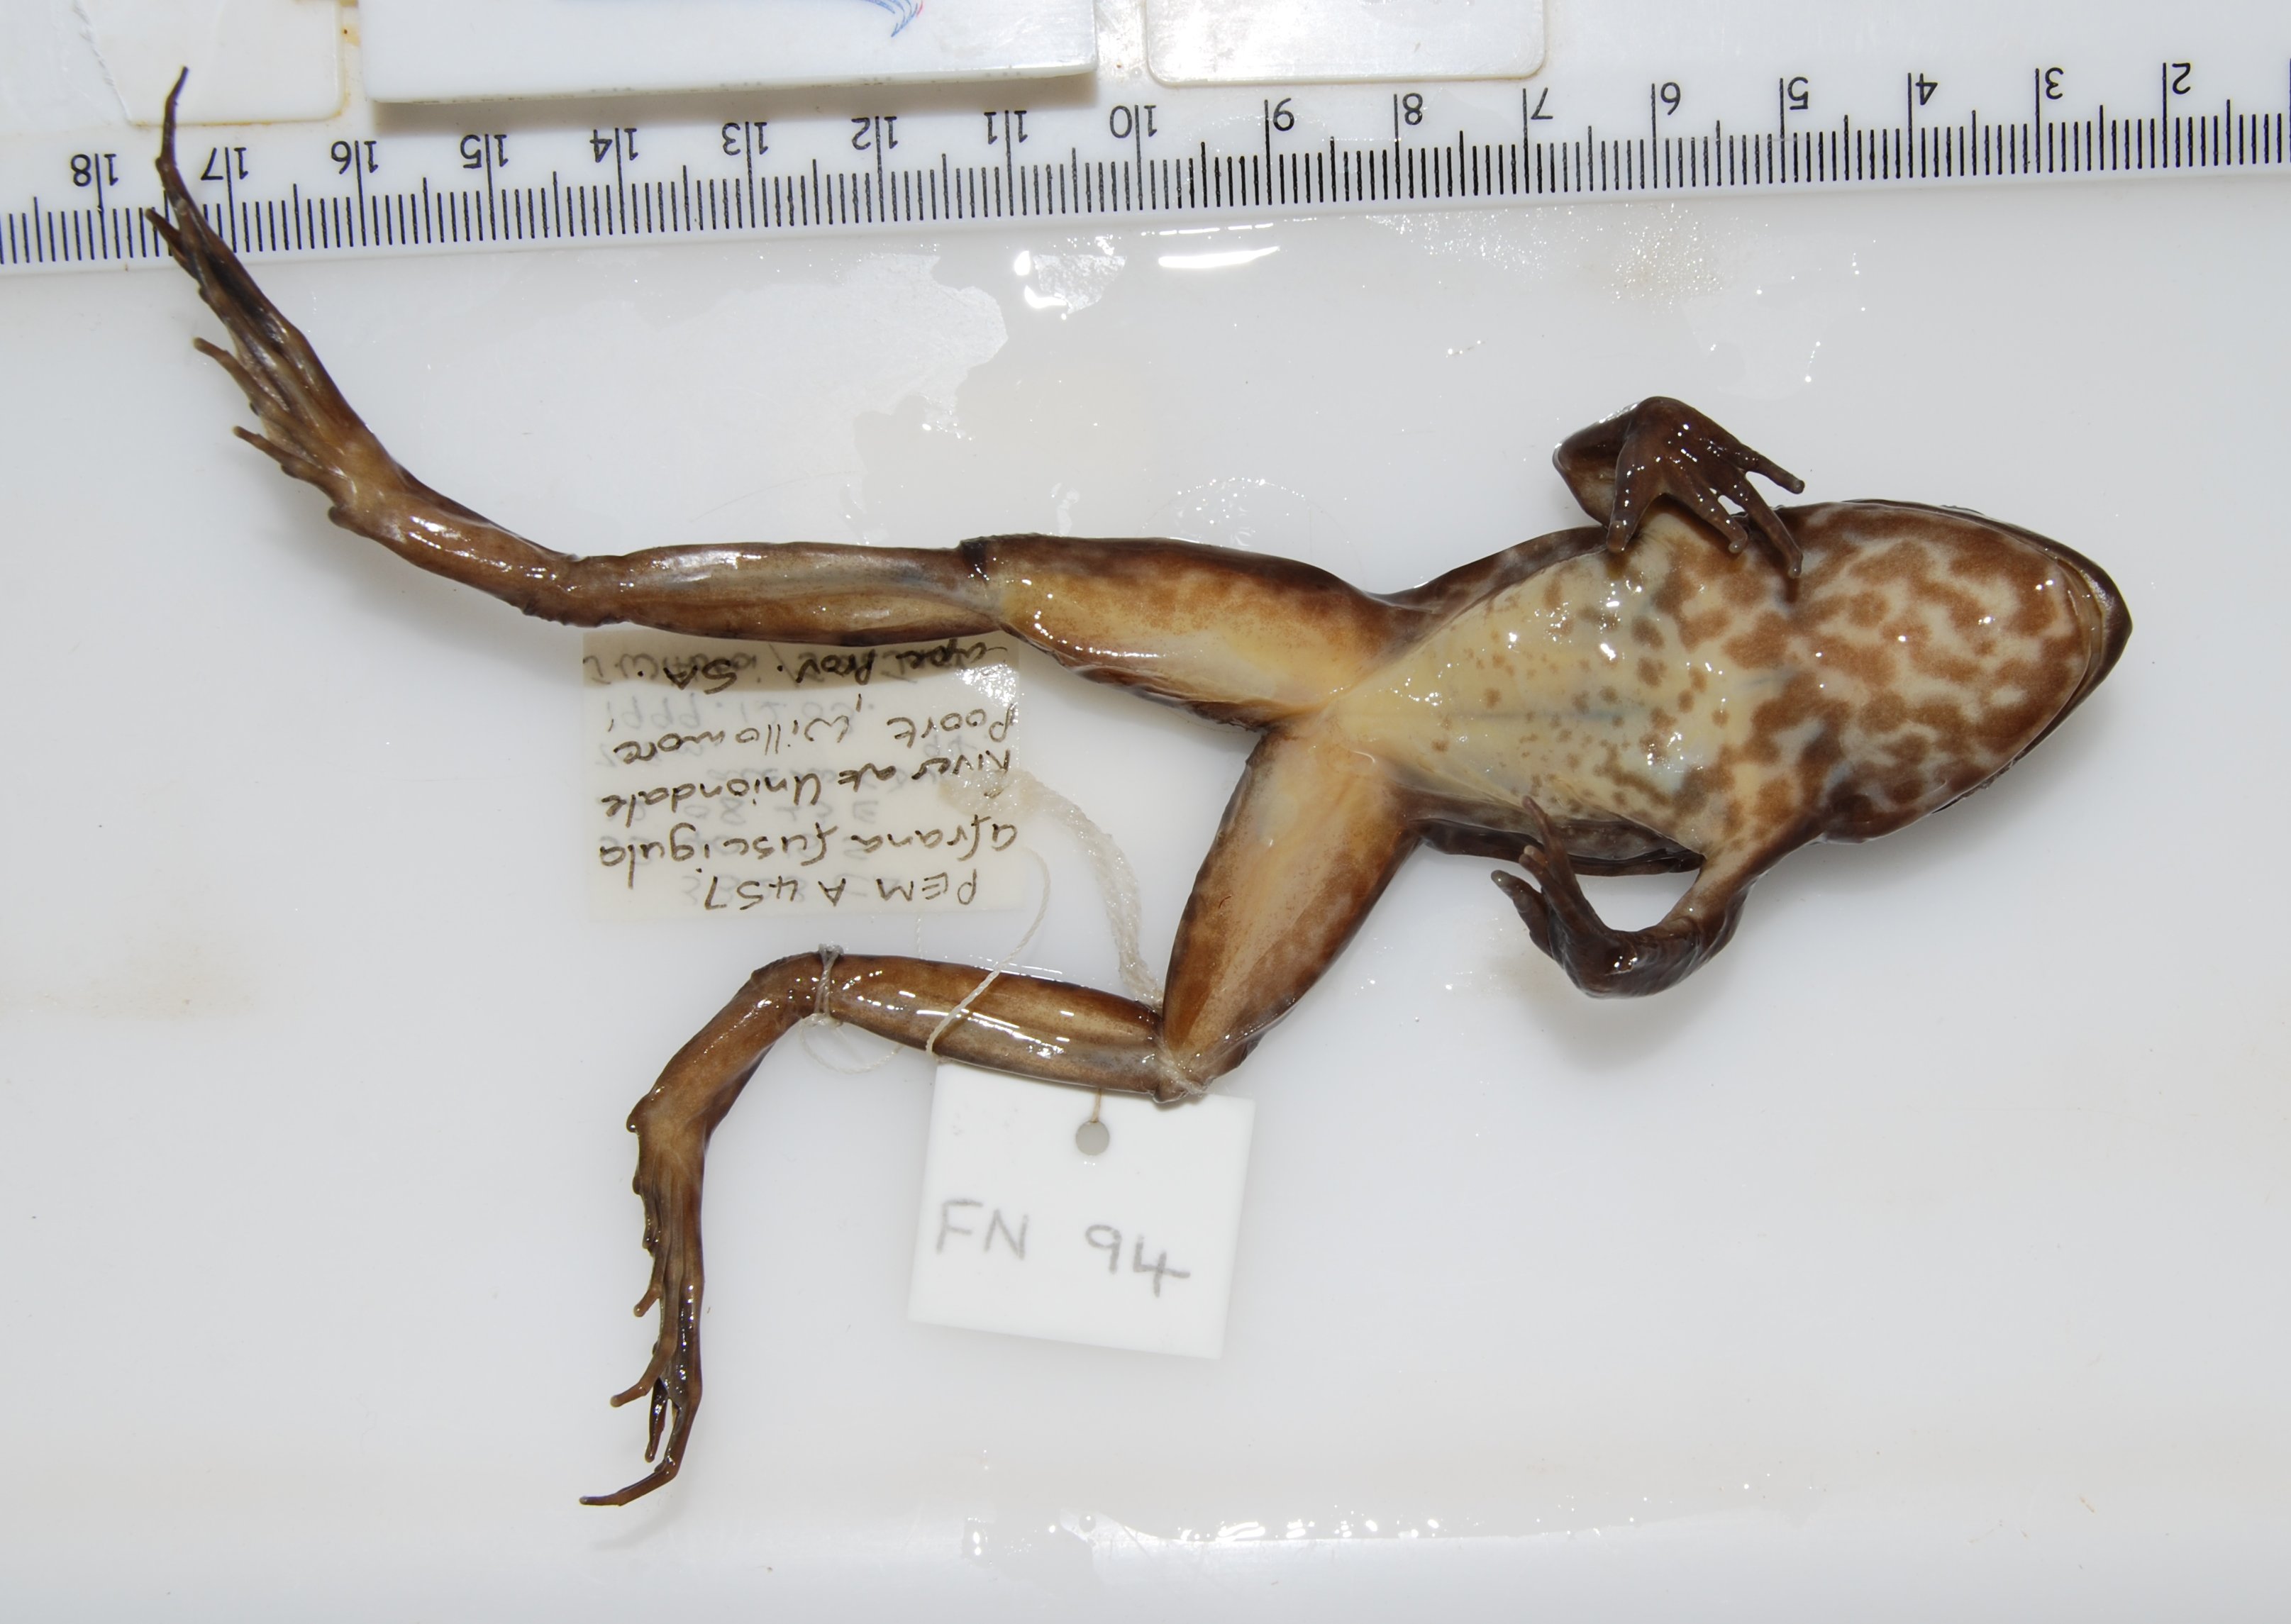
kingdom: Animalia
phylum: Chordata
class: Amphibia
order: Anura
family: Pyxicephalidae
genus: Amietia
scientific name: Amietia fuscigula
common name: Cape rana
